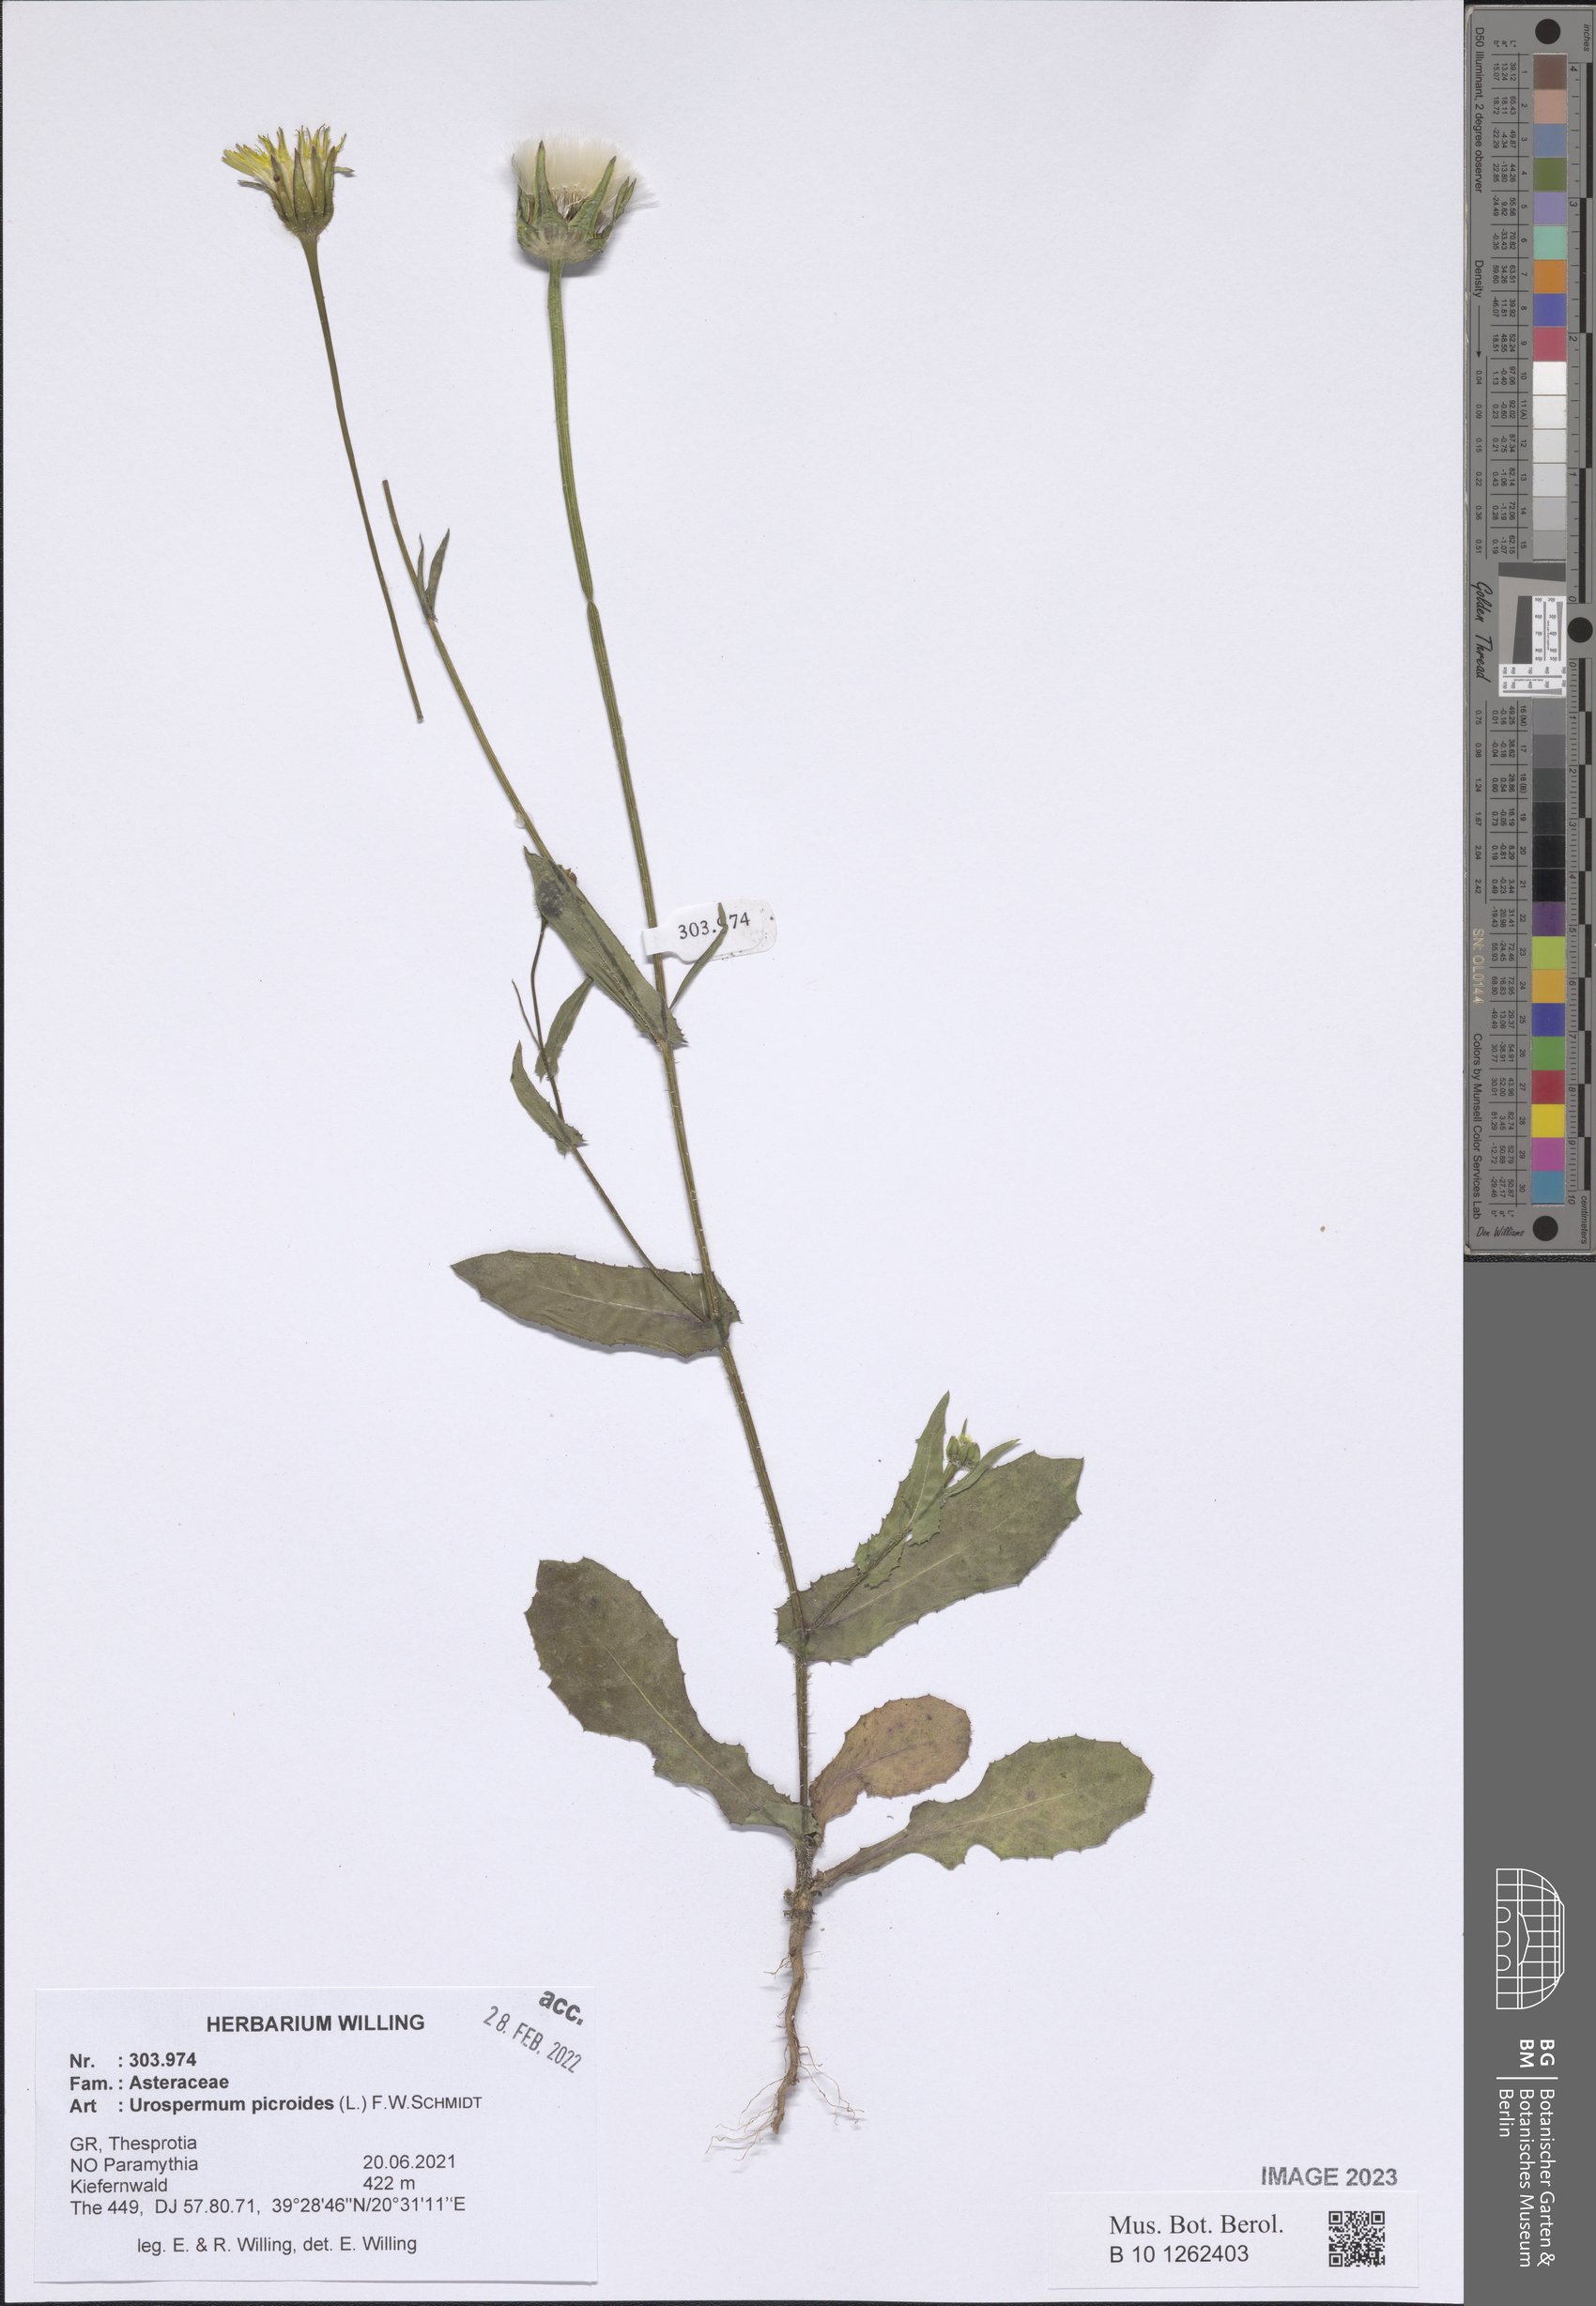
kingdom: Plantae
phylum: Tracheophyta
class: Magnoliopsida
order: Asterales
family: Asteraceae
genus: Urospermum
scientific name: Urospermum picroides
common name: False hawkbit
